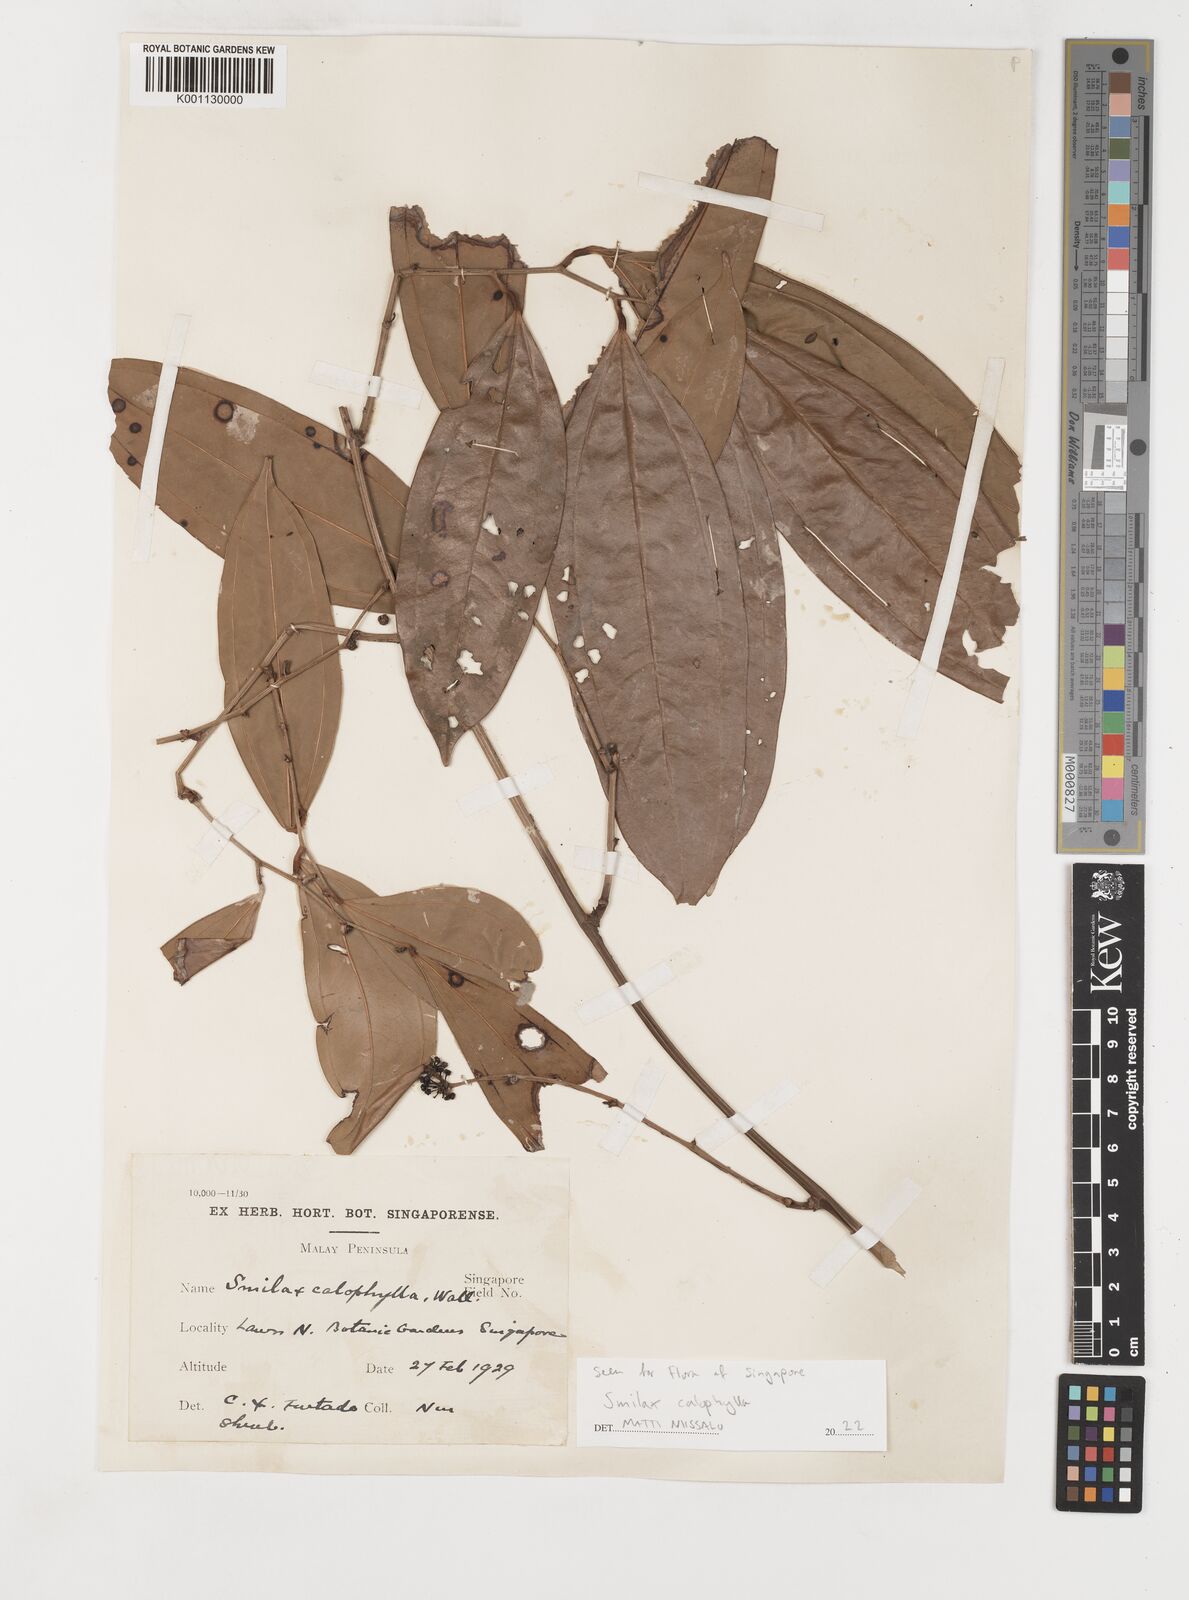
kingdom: Plantae
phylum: Tracheophyta
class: Liliopsida
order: Liliales
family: Smilacaceae
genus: Smilax
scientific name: Smilax calophylla
